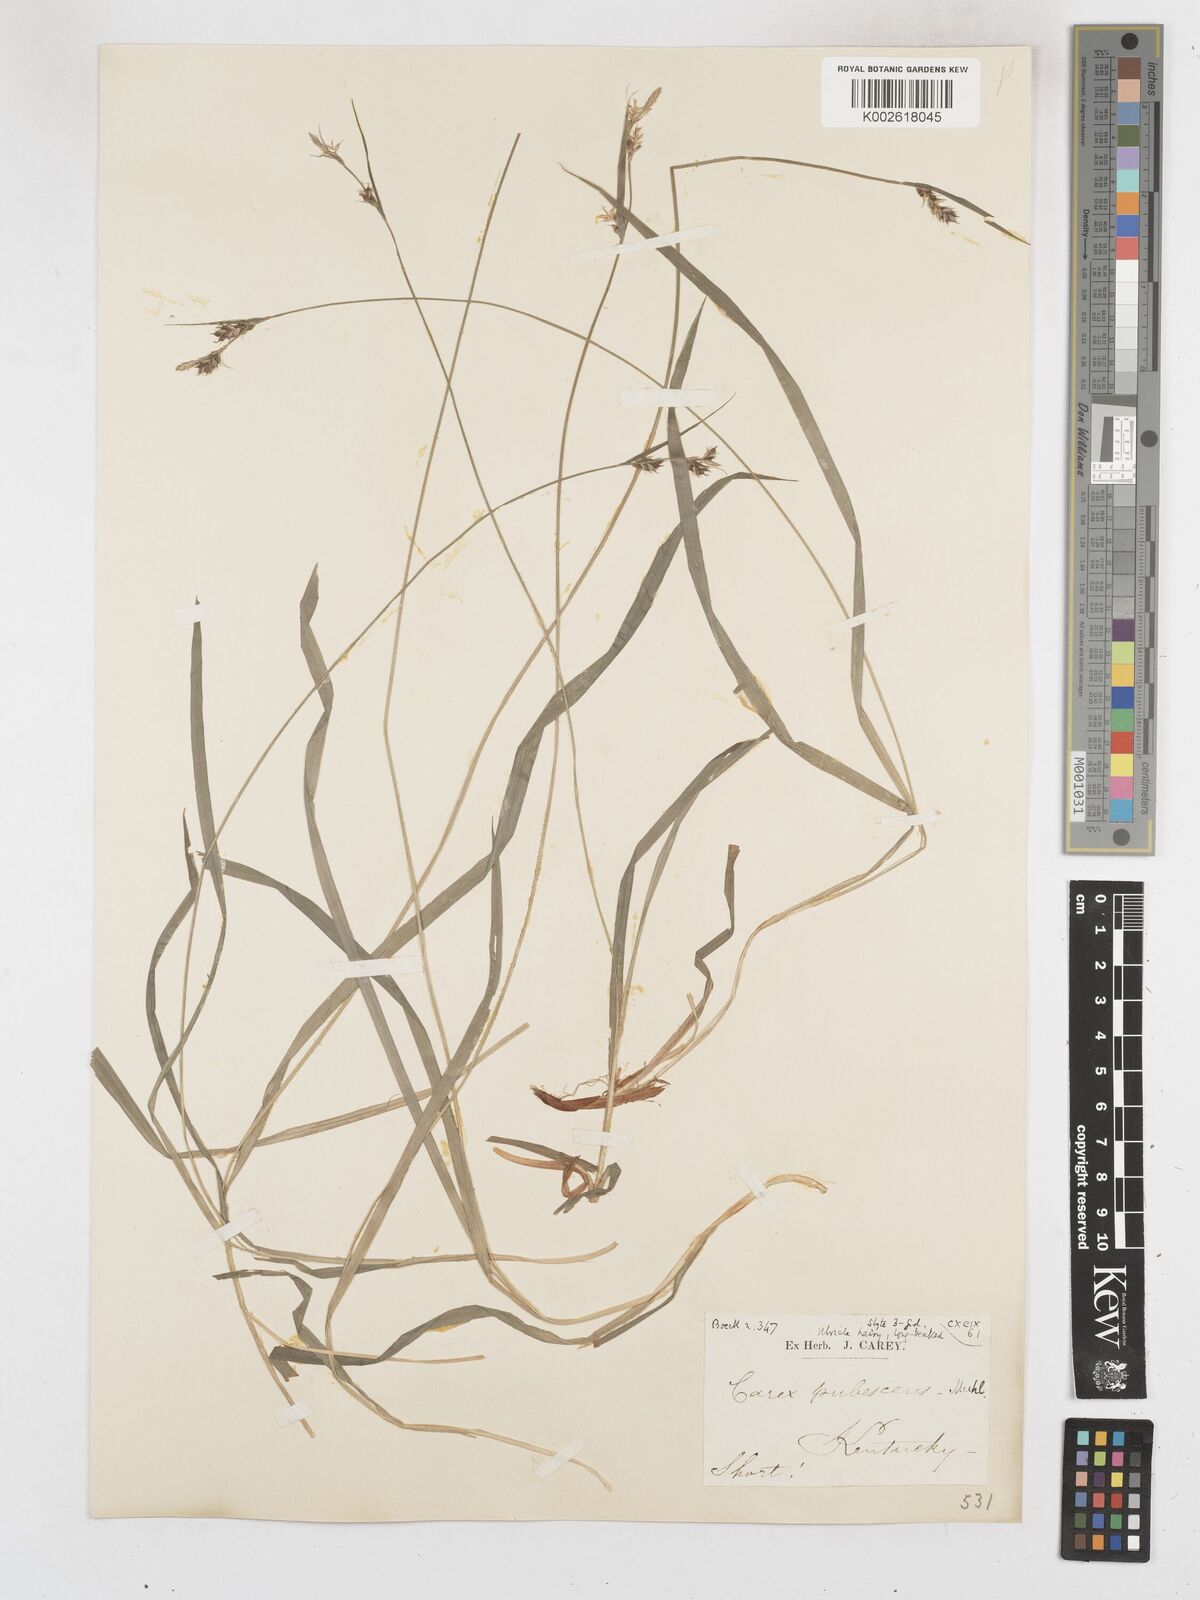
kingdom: Plantae
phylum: Tracheophyta
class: Liliopsida
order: Poales
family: Cyperaceae
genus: Carex
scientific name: Carex hirtifolia
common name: Hairy sedge
